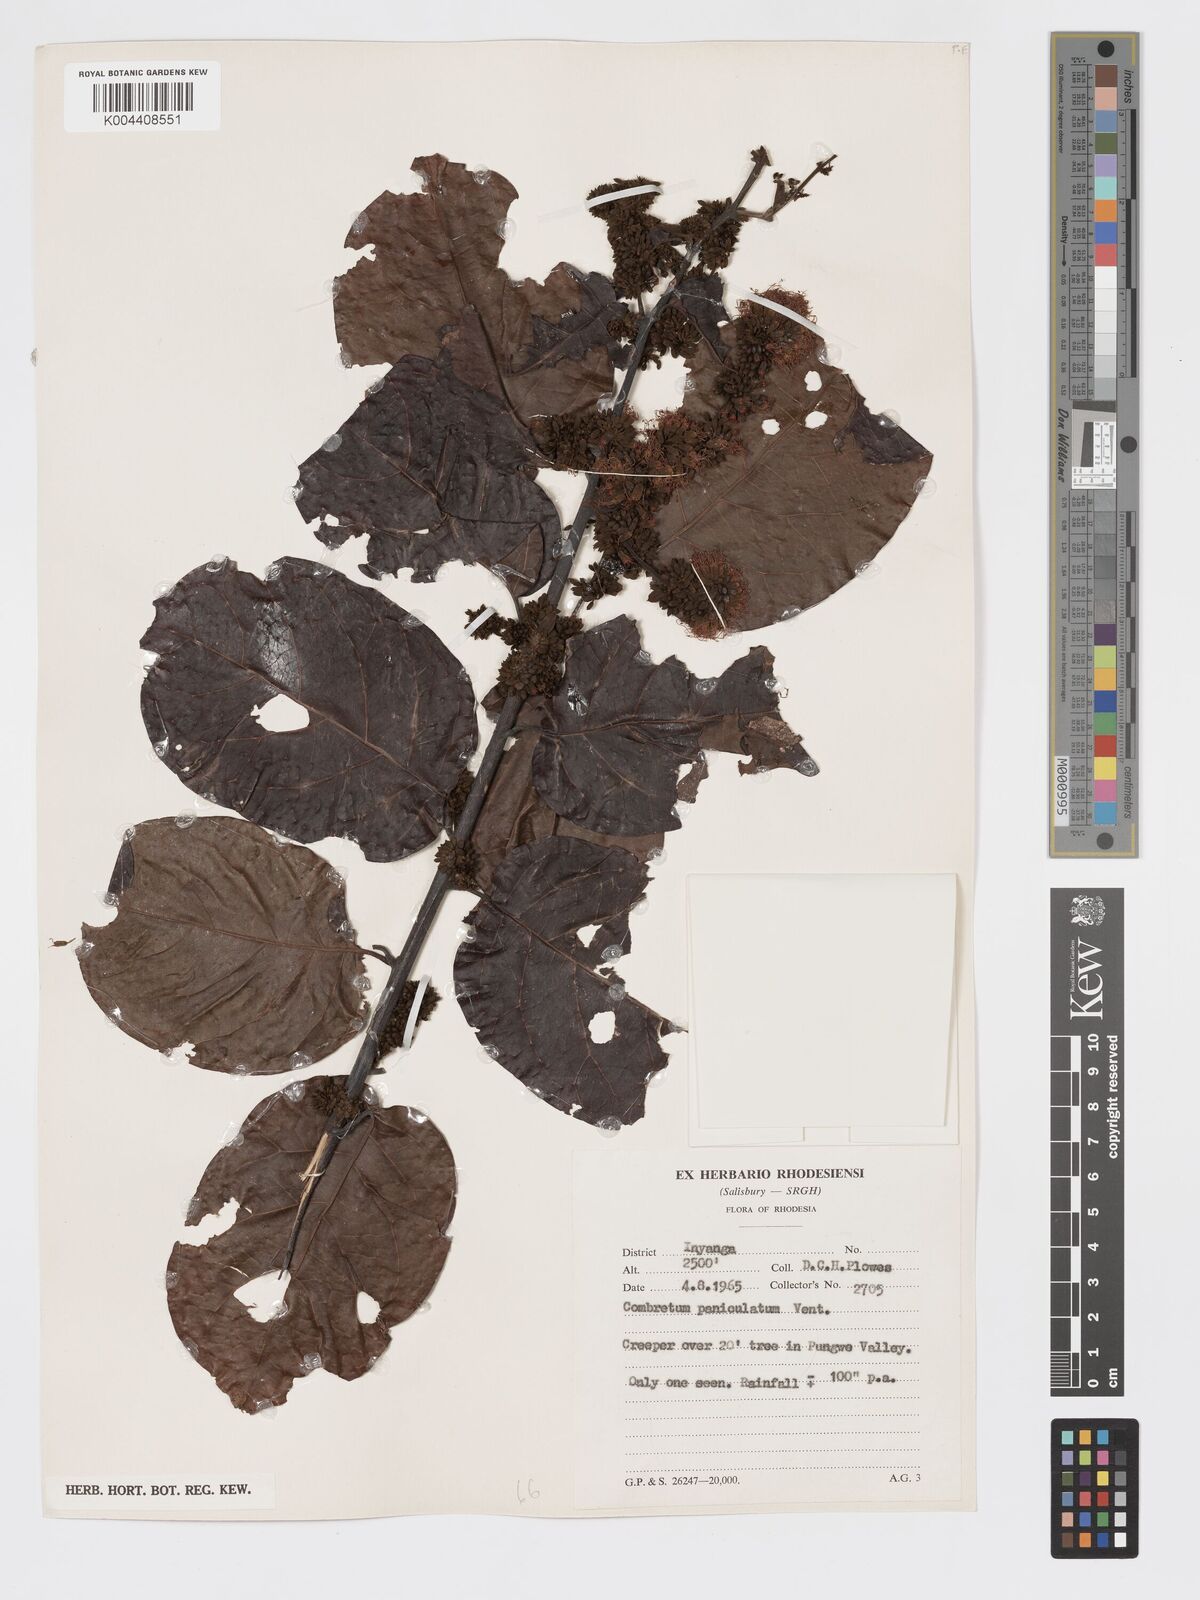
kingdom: Plantae
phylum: Tracheophyta
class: Magnoliopsida
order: Myrtales
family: Combretaceae
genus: Combretum
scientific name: Combretum paniculatum
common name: Fire vine
